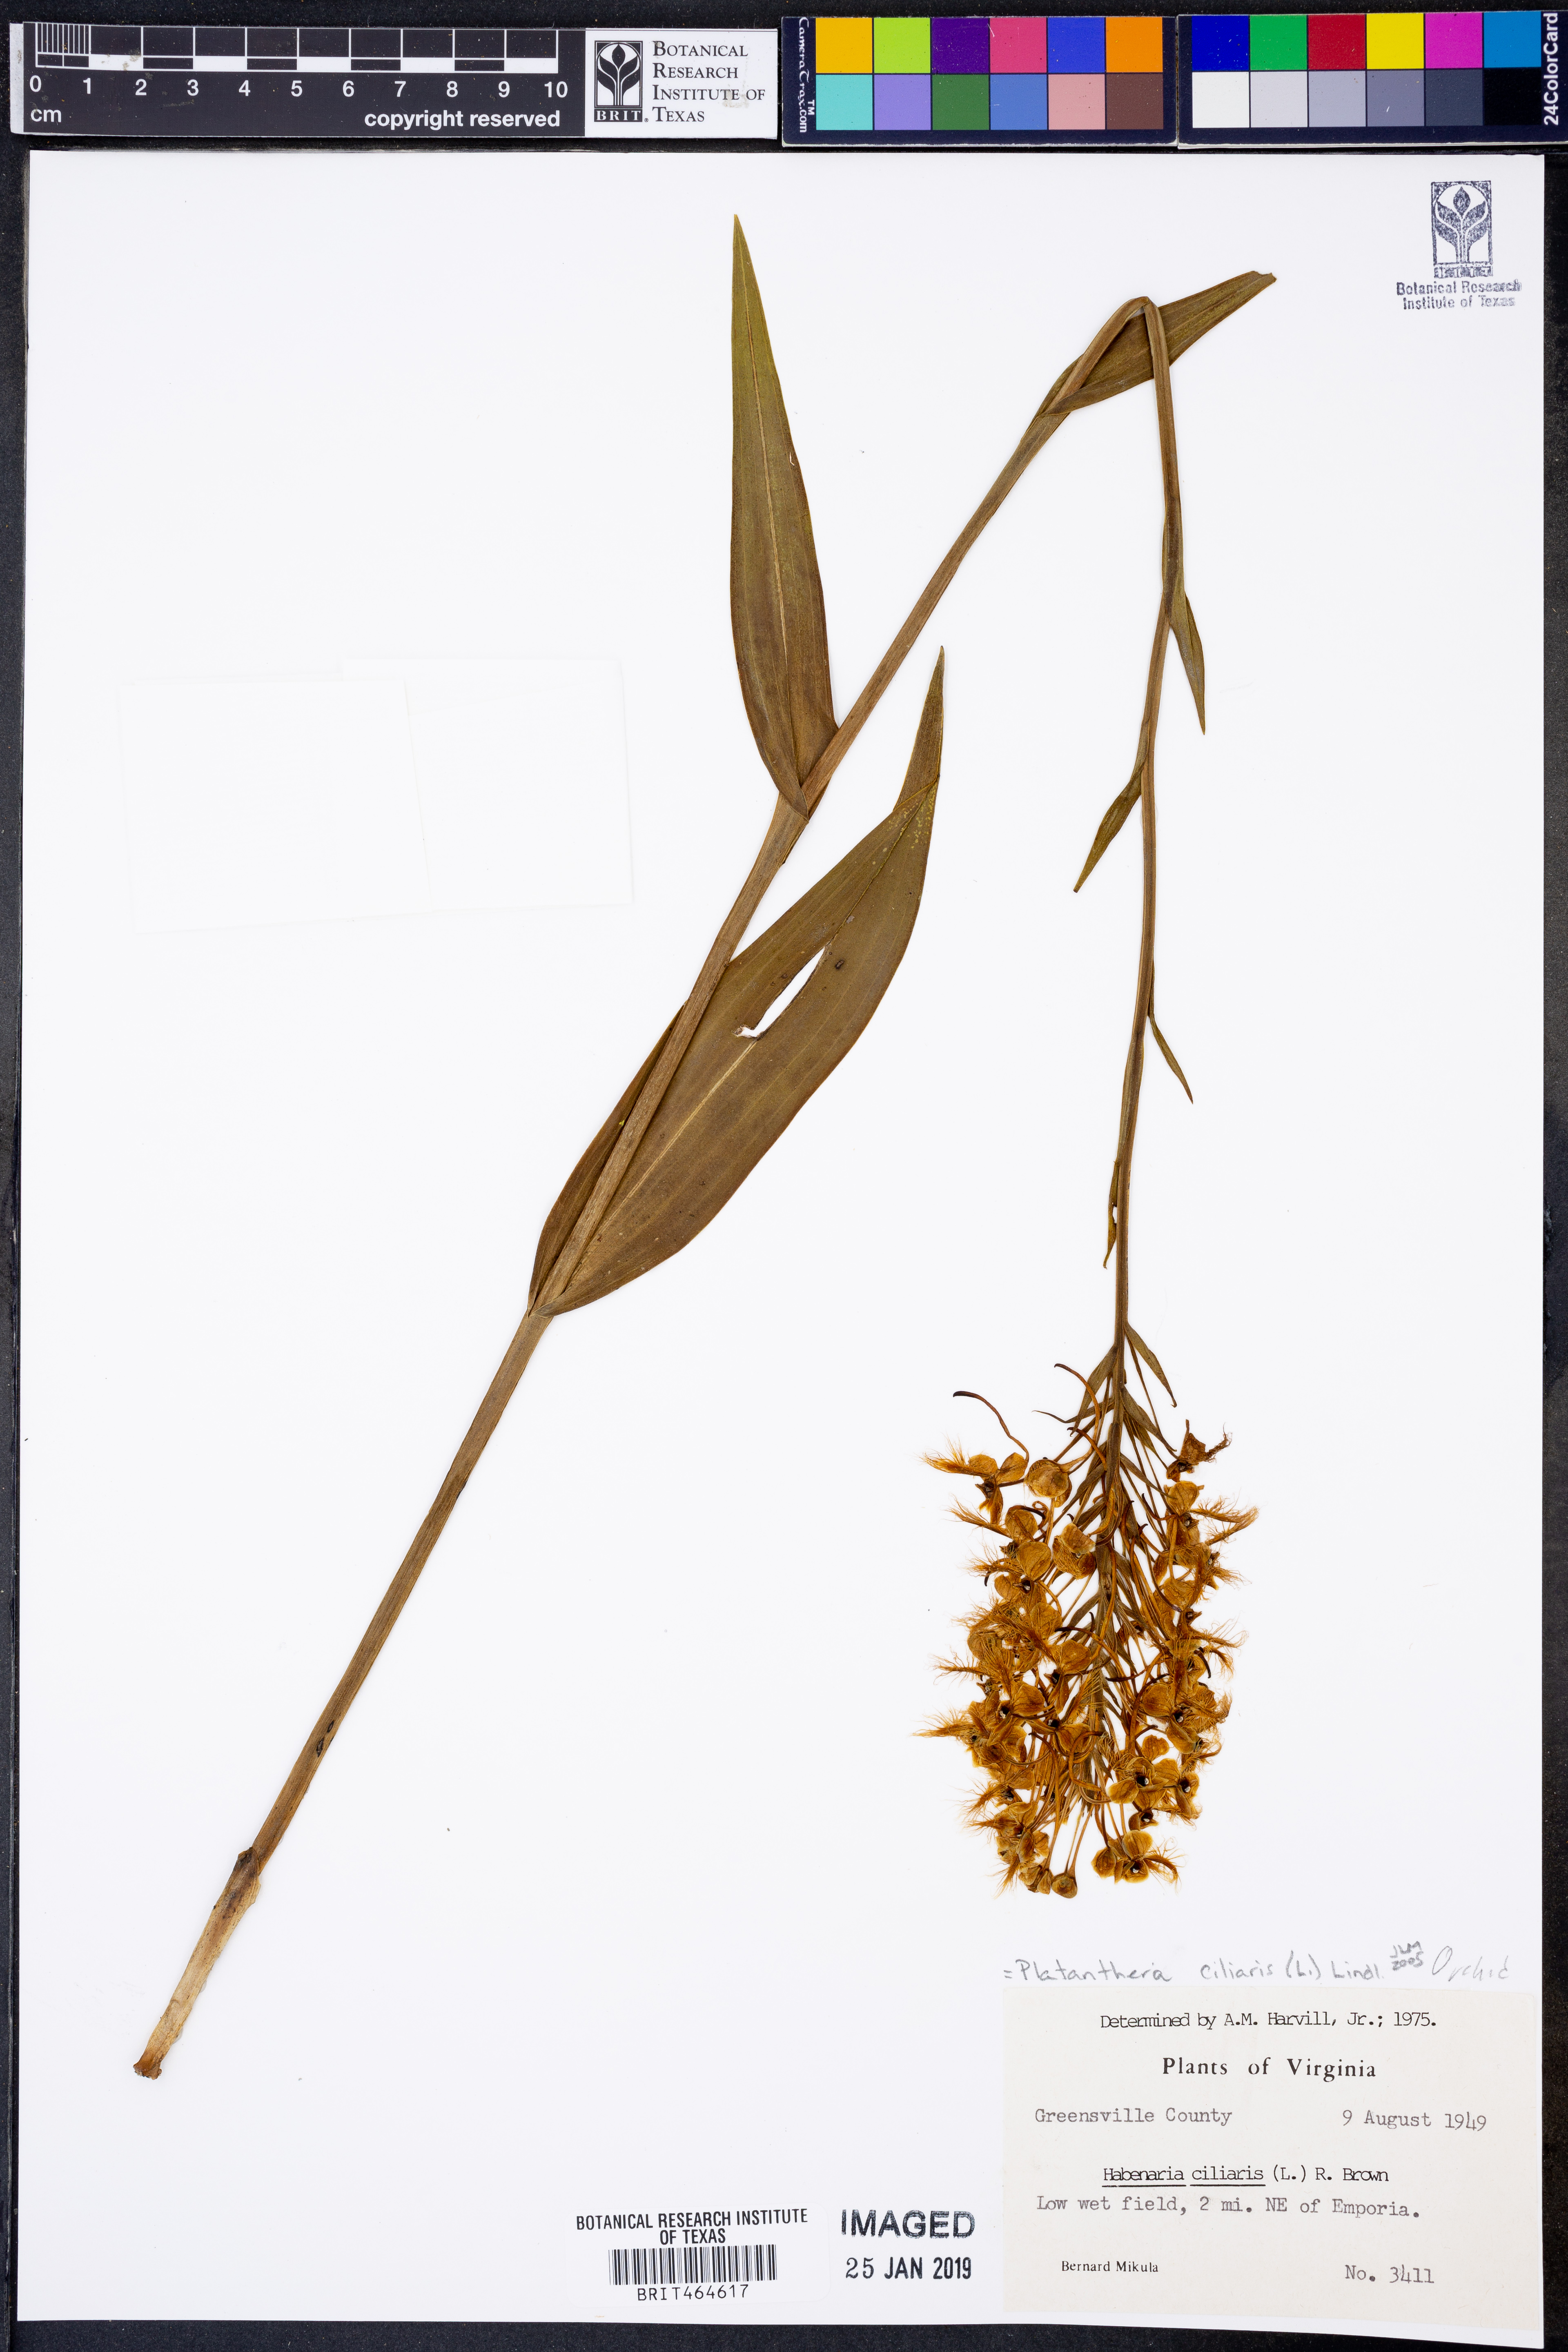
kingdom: Plantae
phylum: Tracheophyta
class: Liliopsida
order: Asparagales
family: Orchidaceae
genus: Platanthera
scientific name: Platanthera ciliaris
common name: Yellow fringed orchid
